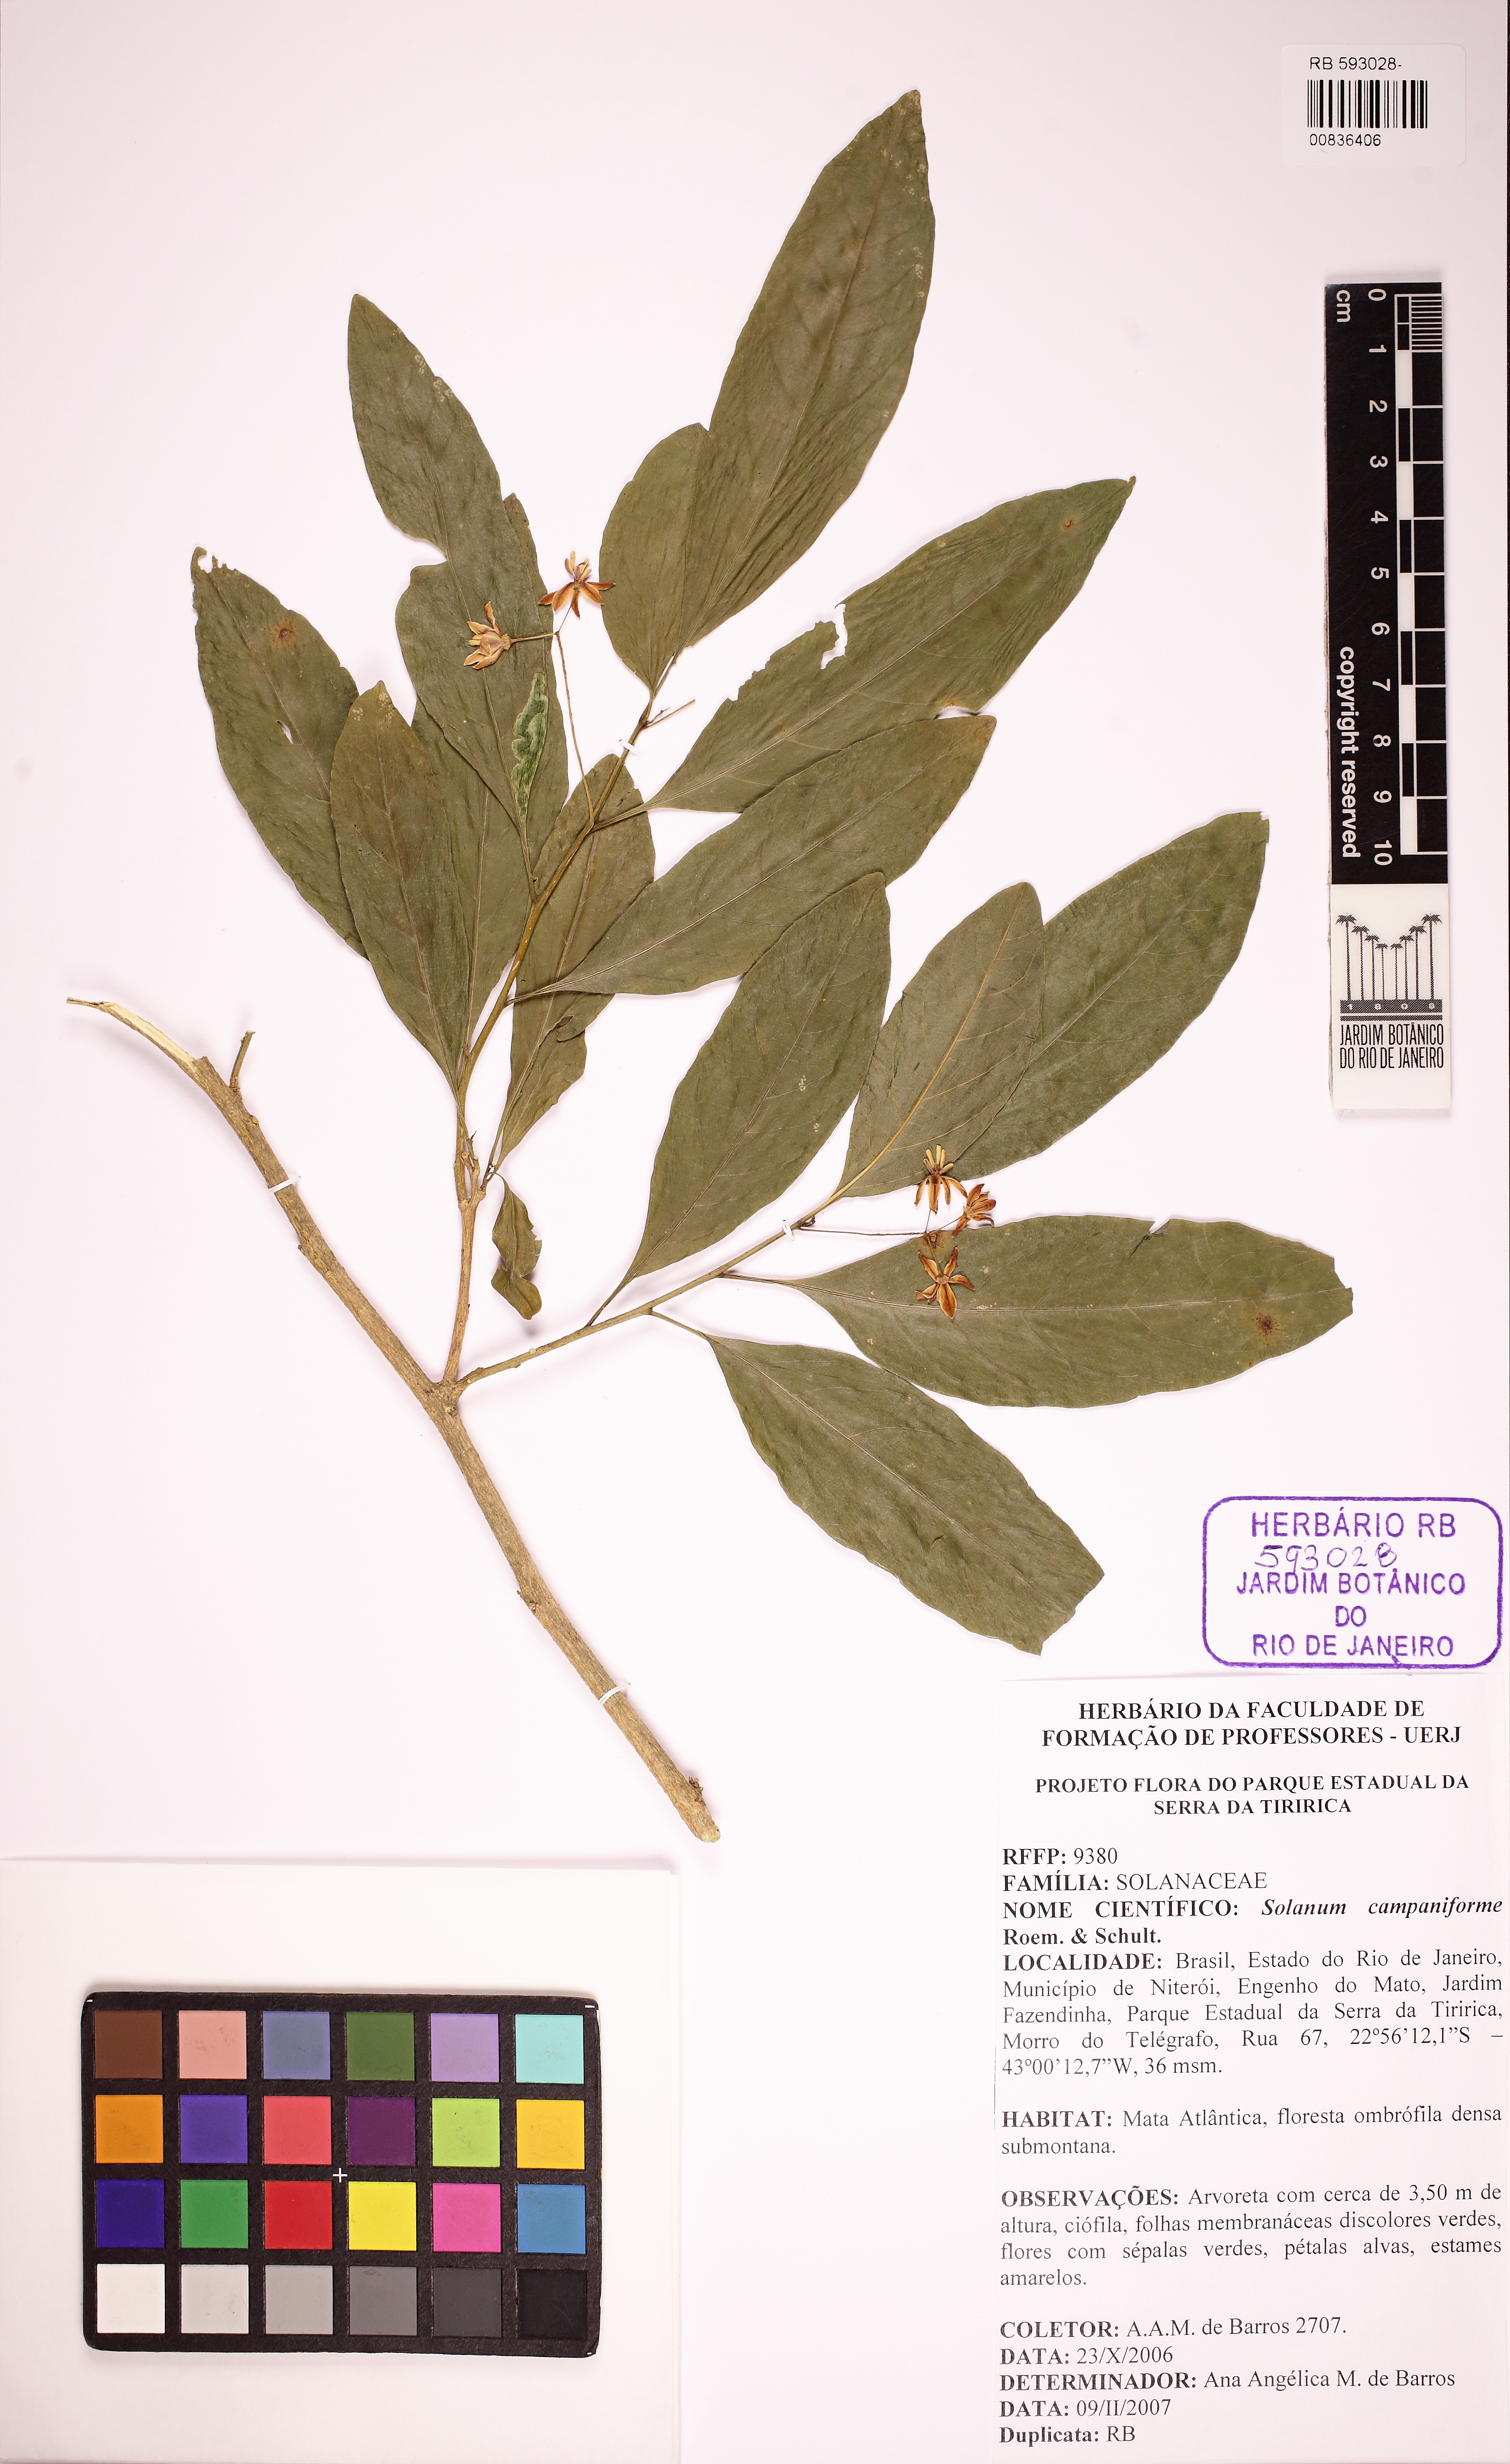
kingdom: Plantae
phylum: Tracheophyta
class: Magnoliopsida
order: Solanales
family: Solanaceae
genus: Solanum
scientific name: Solanum campaniforme
